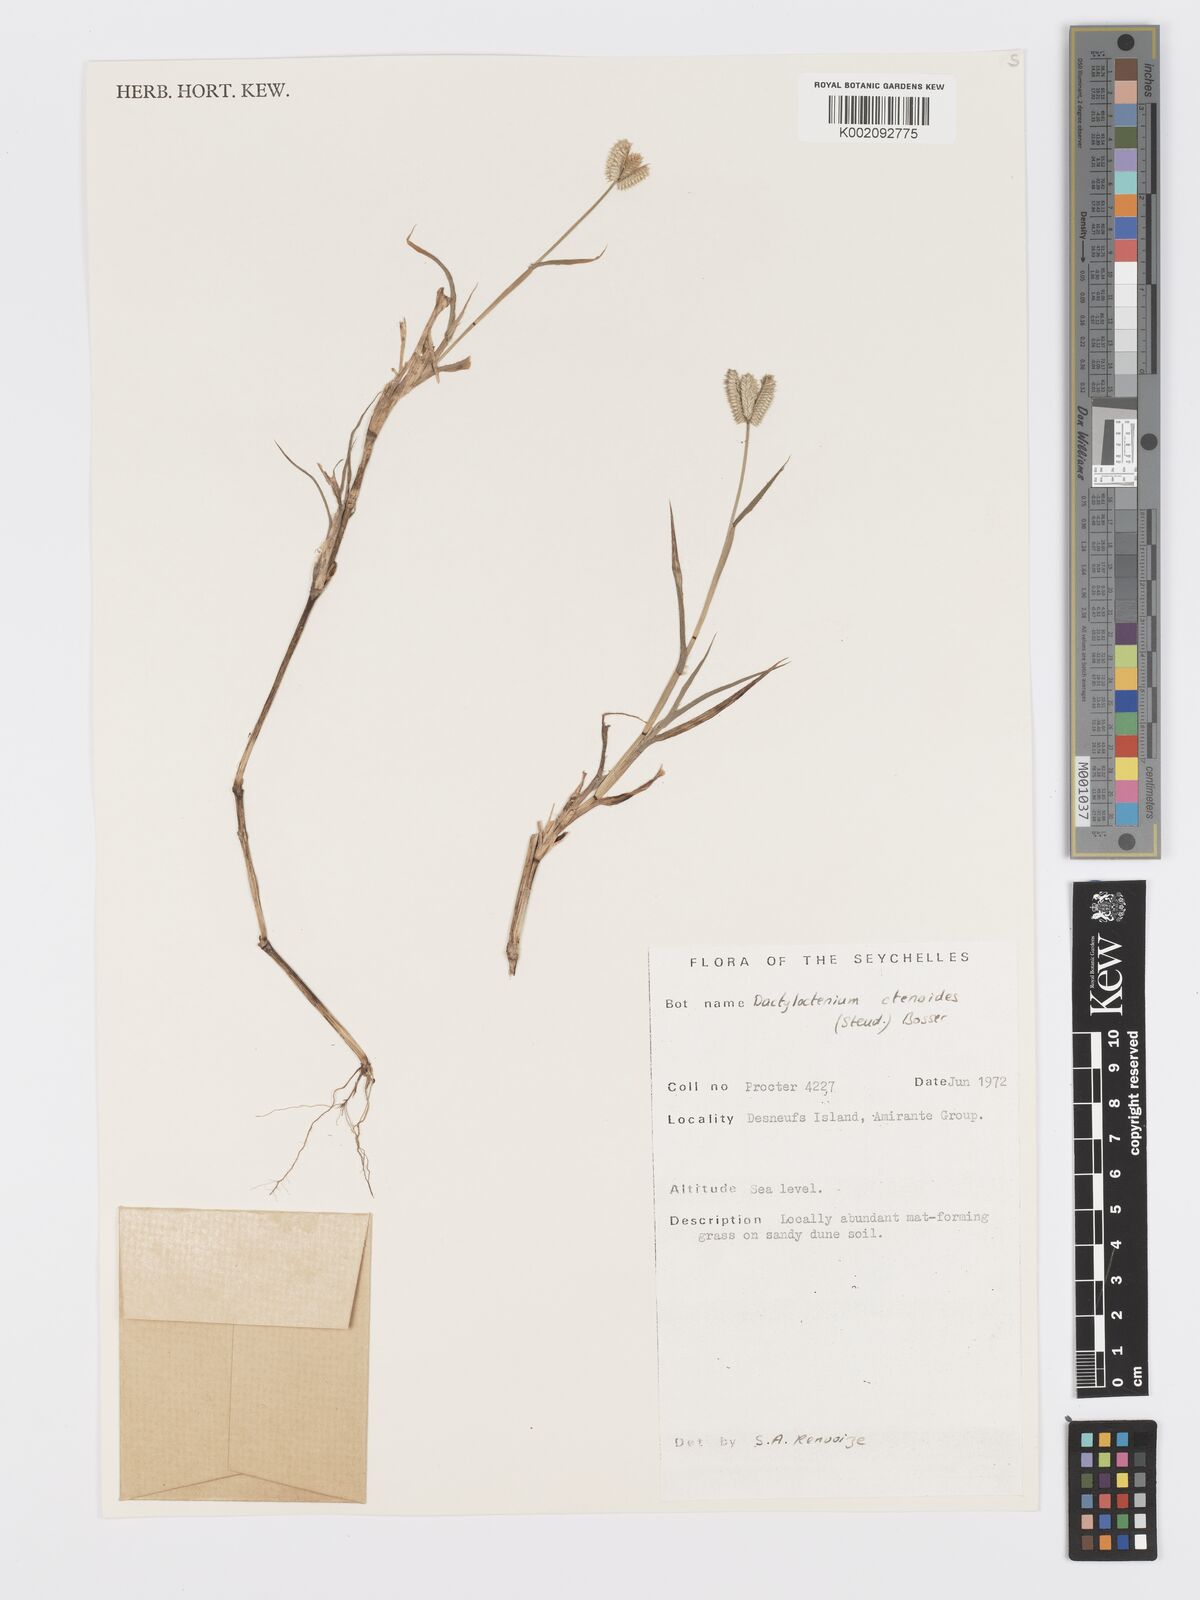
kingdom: Plantae
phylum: Tracheophyta
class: Liliopsida
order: Poales
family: Poaceae
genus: Dactyloctenium
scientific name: Dactyloctenium ctenoides
